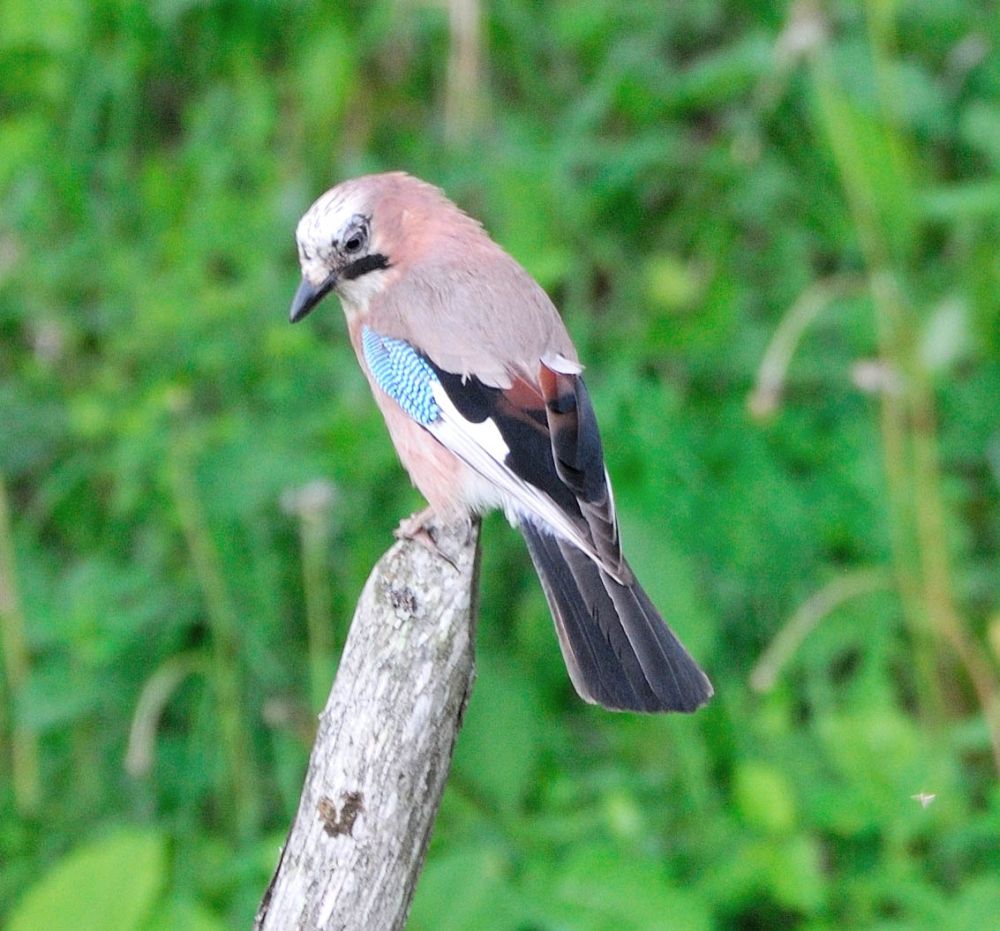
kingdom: Animalia
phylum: Chordata
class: Aves
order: Passeriformes
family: Corvidae
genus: Garrulus
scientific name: Garrulus glandarius
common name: Eurasian jay
